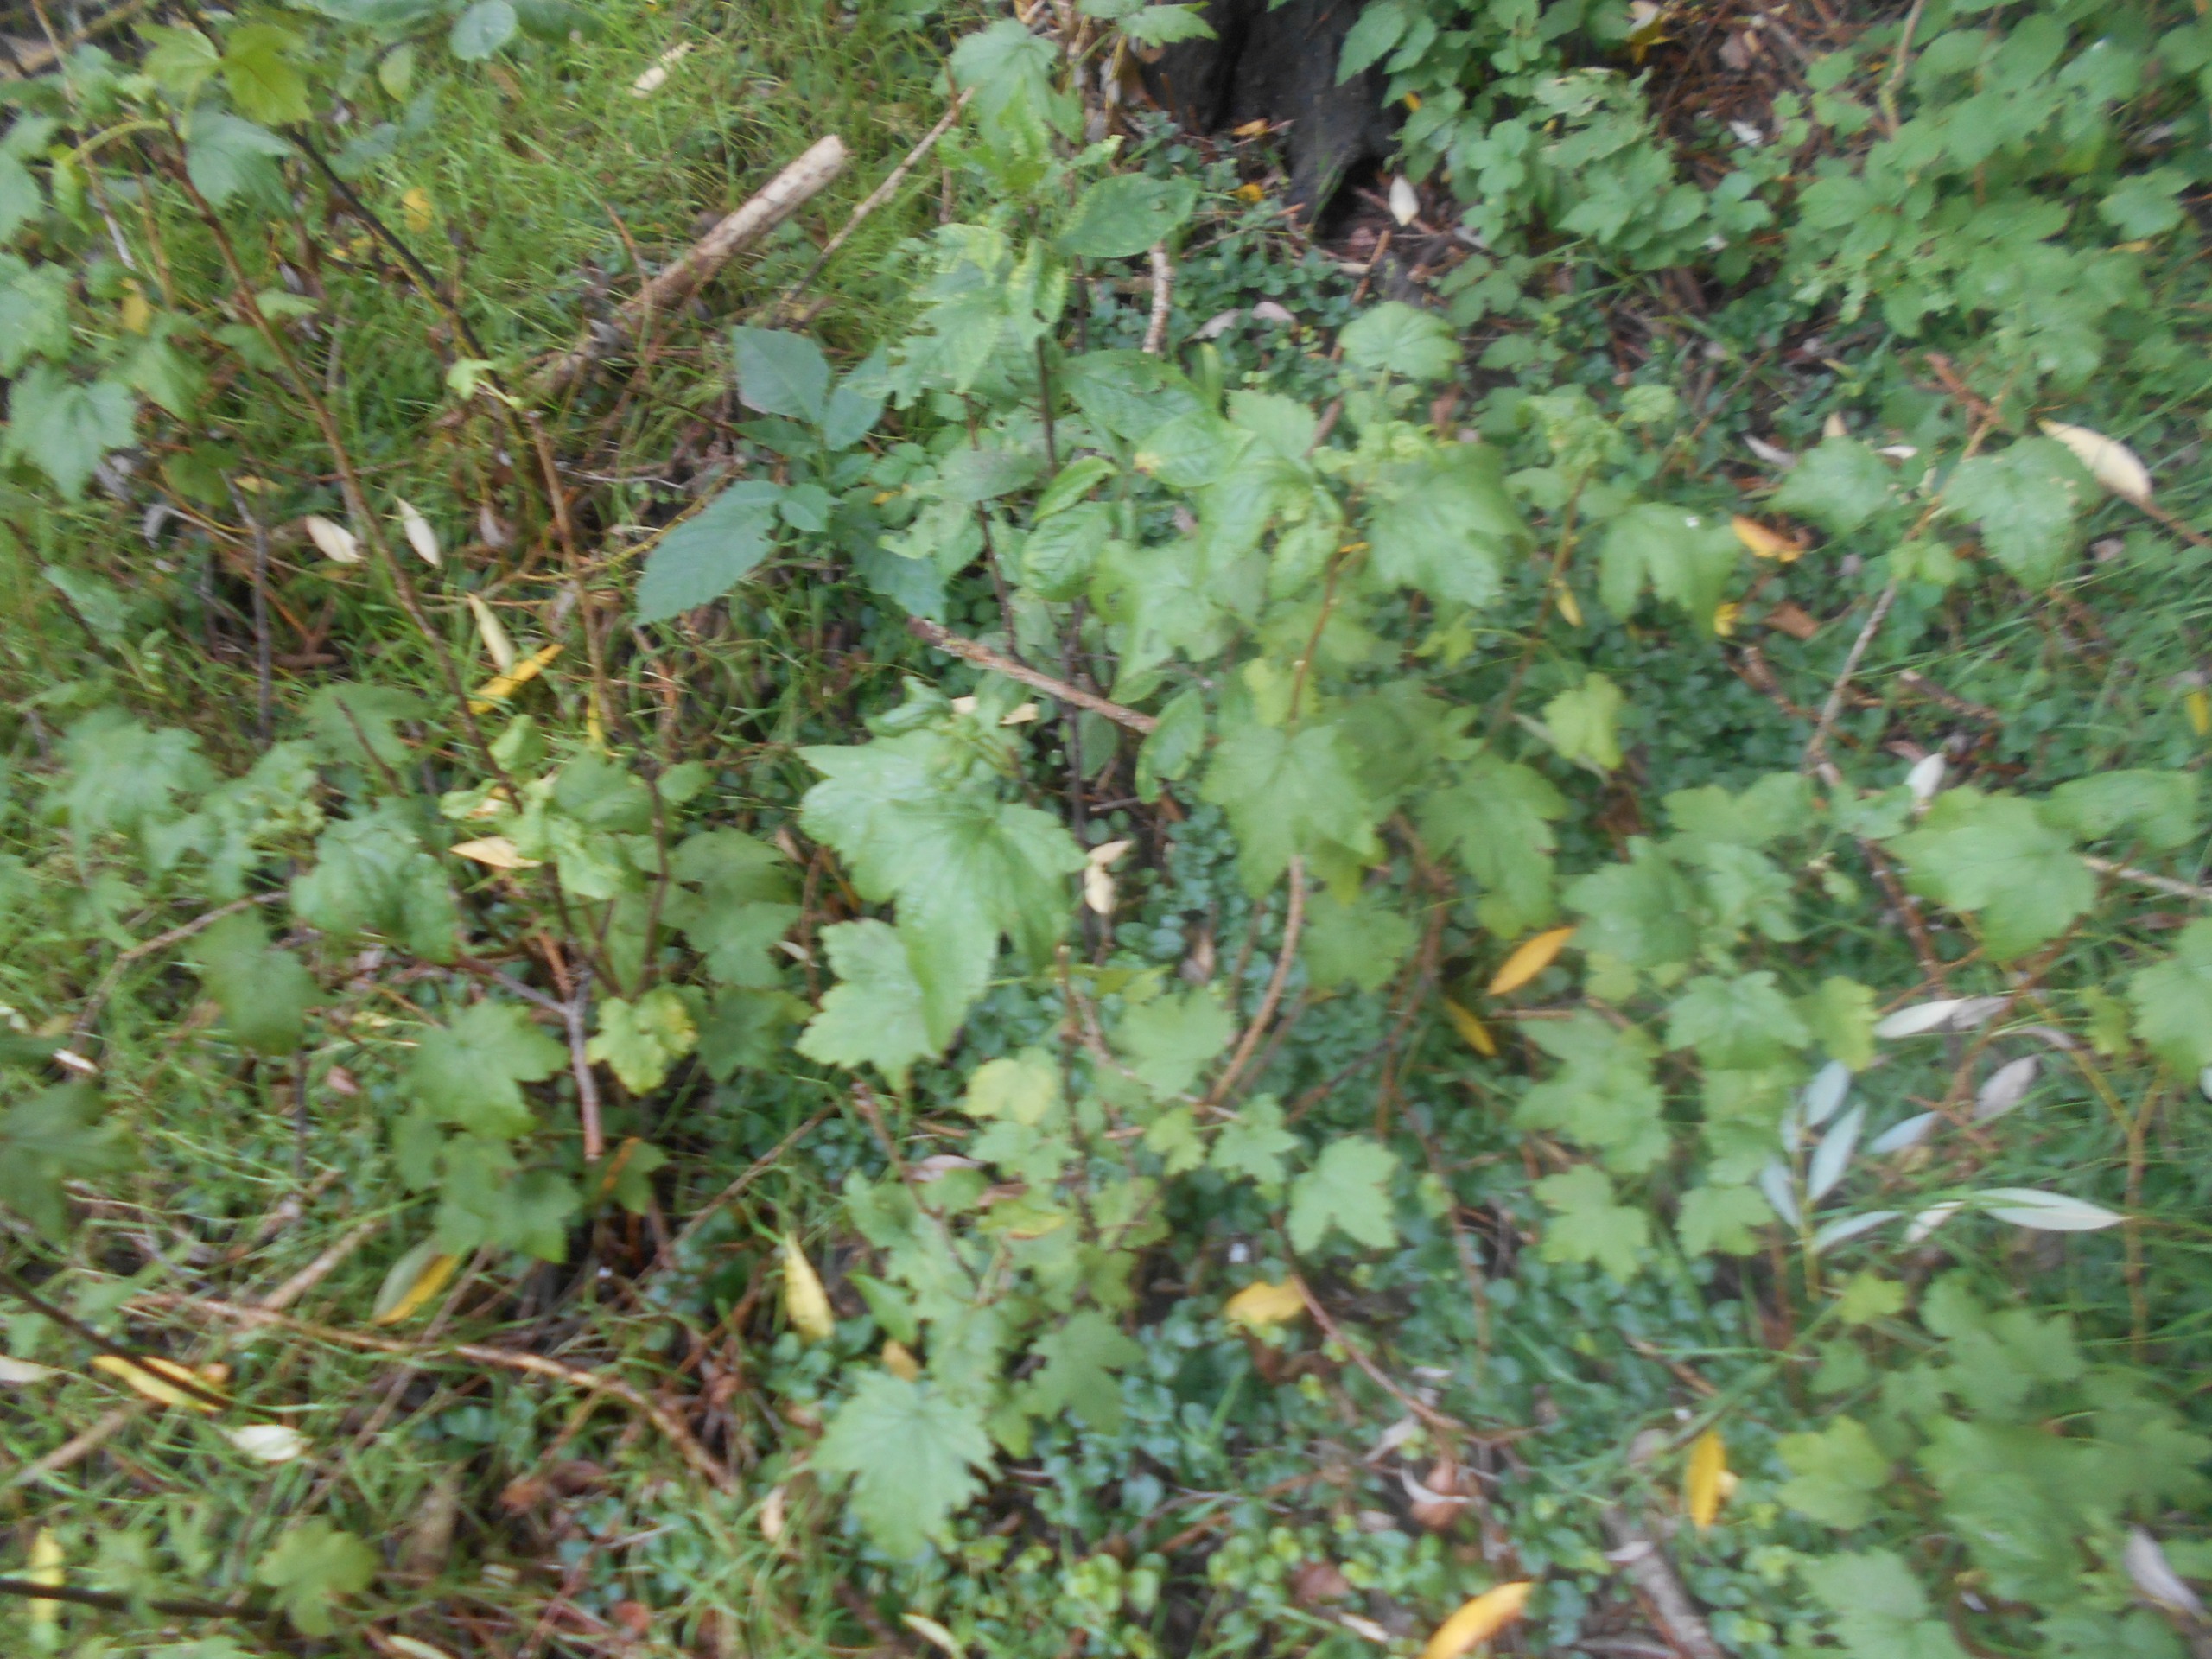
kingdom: Plantae
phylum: Tracheophyta
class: Magnoliopsida
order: Saxifragales
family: Grossulariaceae
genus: Ribes
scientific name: Ribes
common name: Ribsslægten
